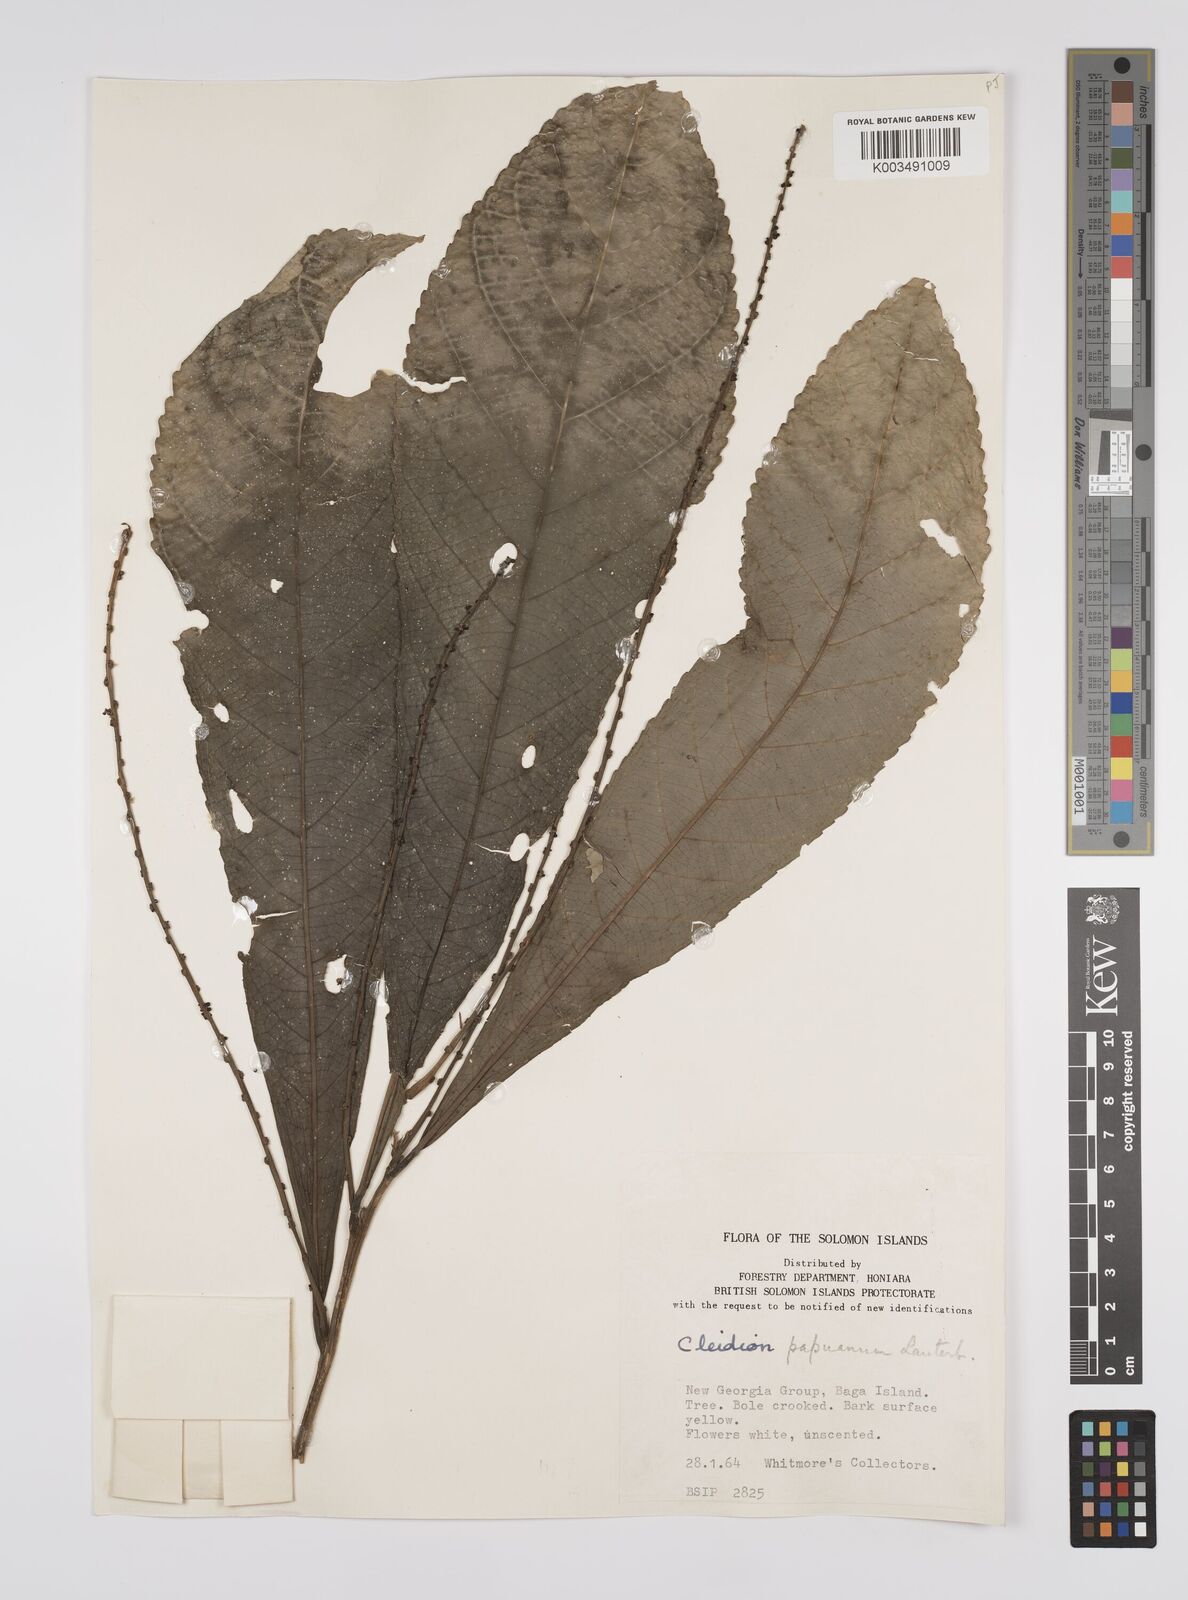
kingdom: Plantae
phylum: Tracheophyta
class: Magnoliopsida
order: Malpighiales
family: Euphorbiaceae
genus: Cleidion
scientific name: Cleidion papuanum
